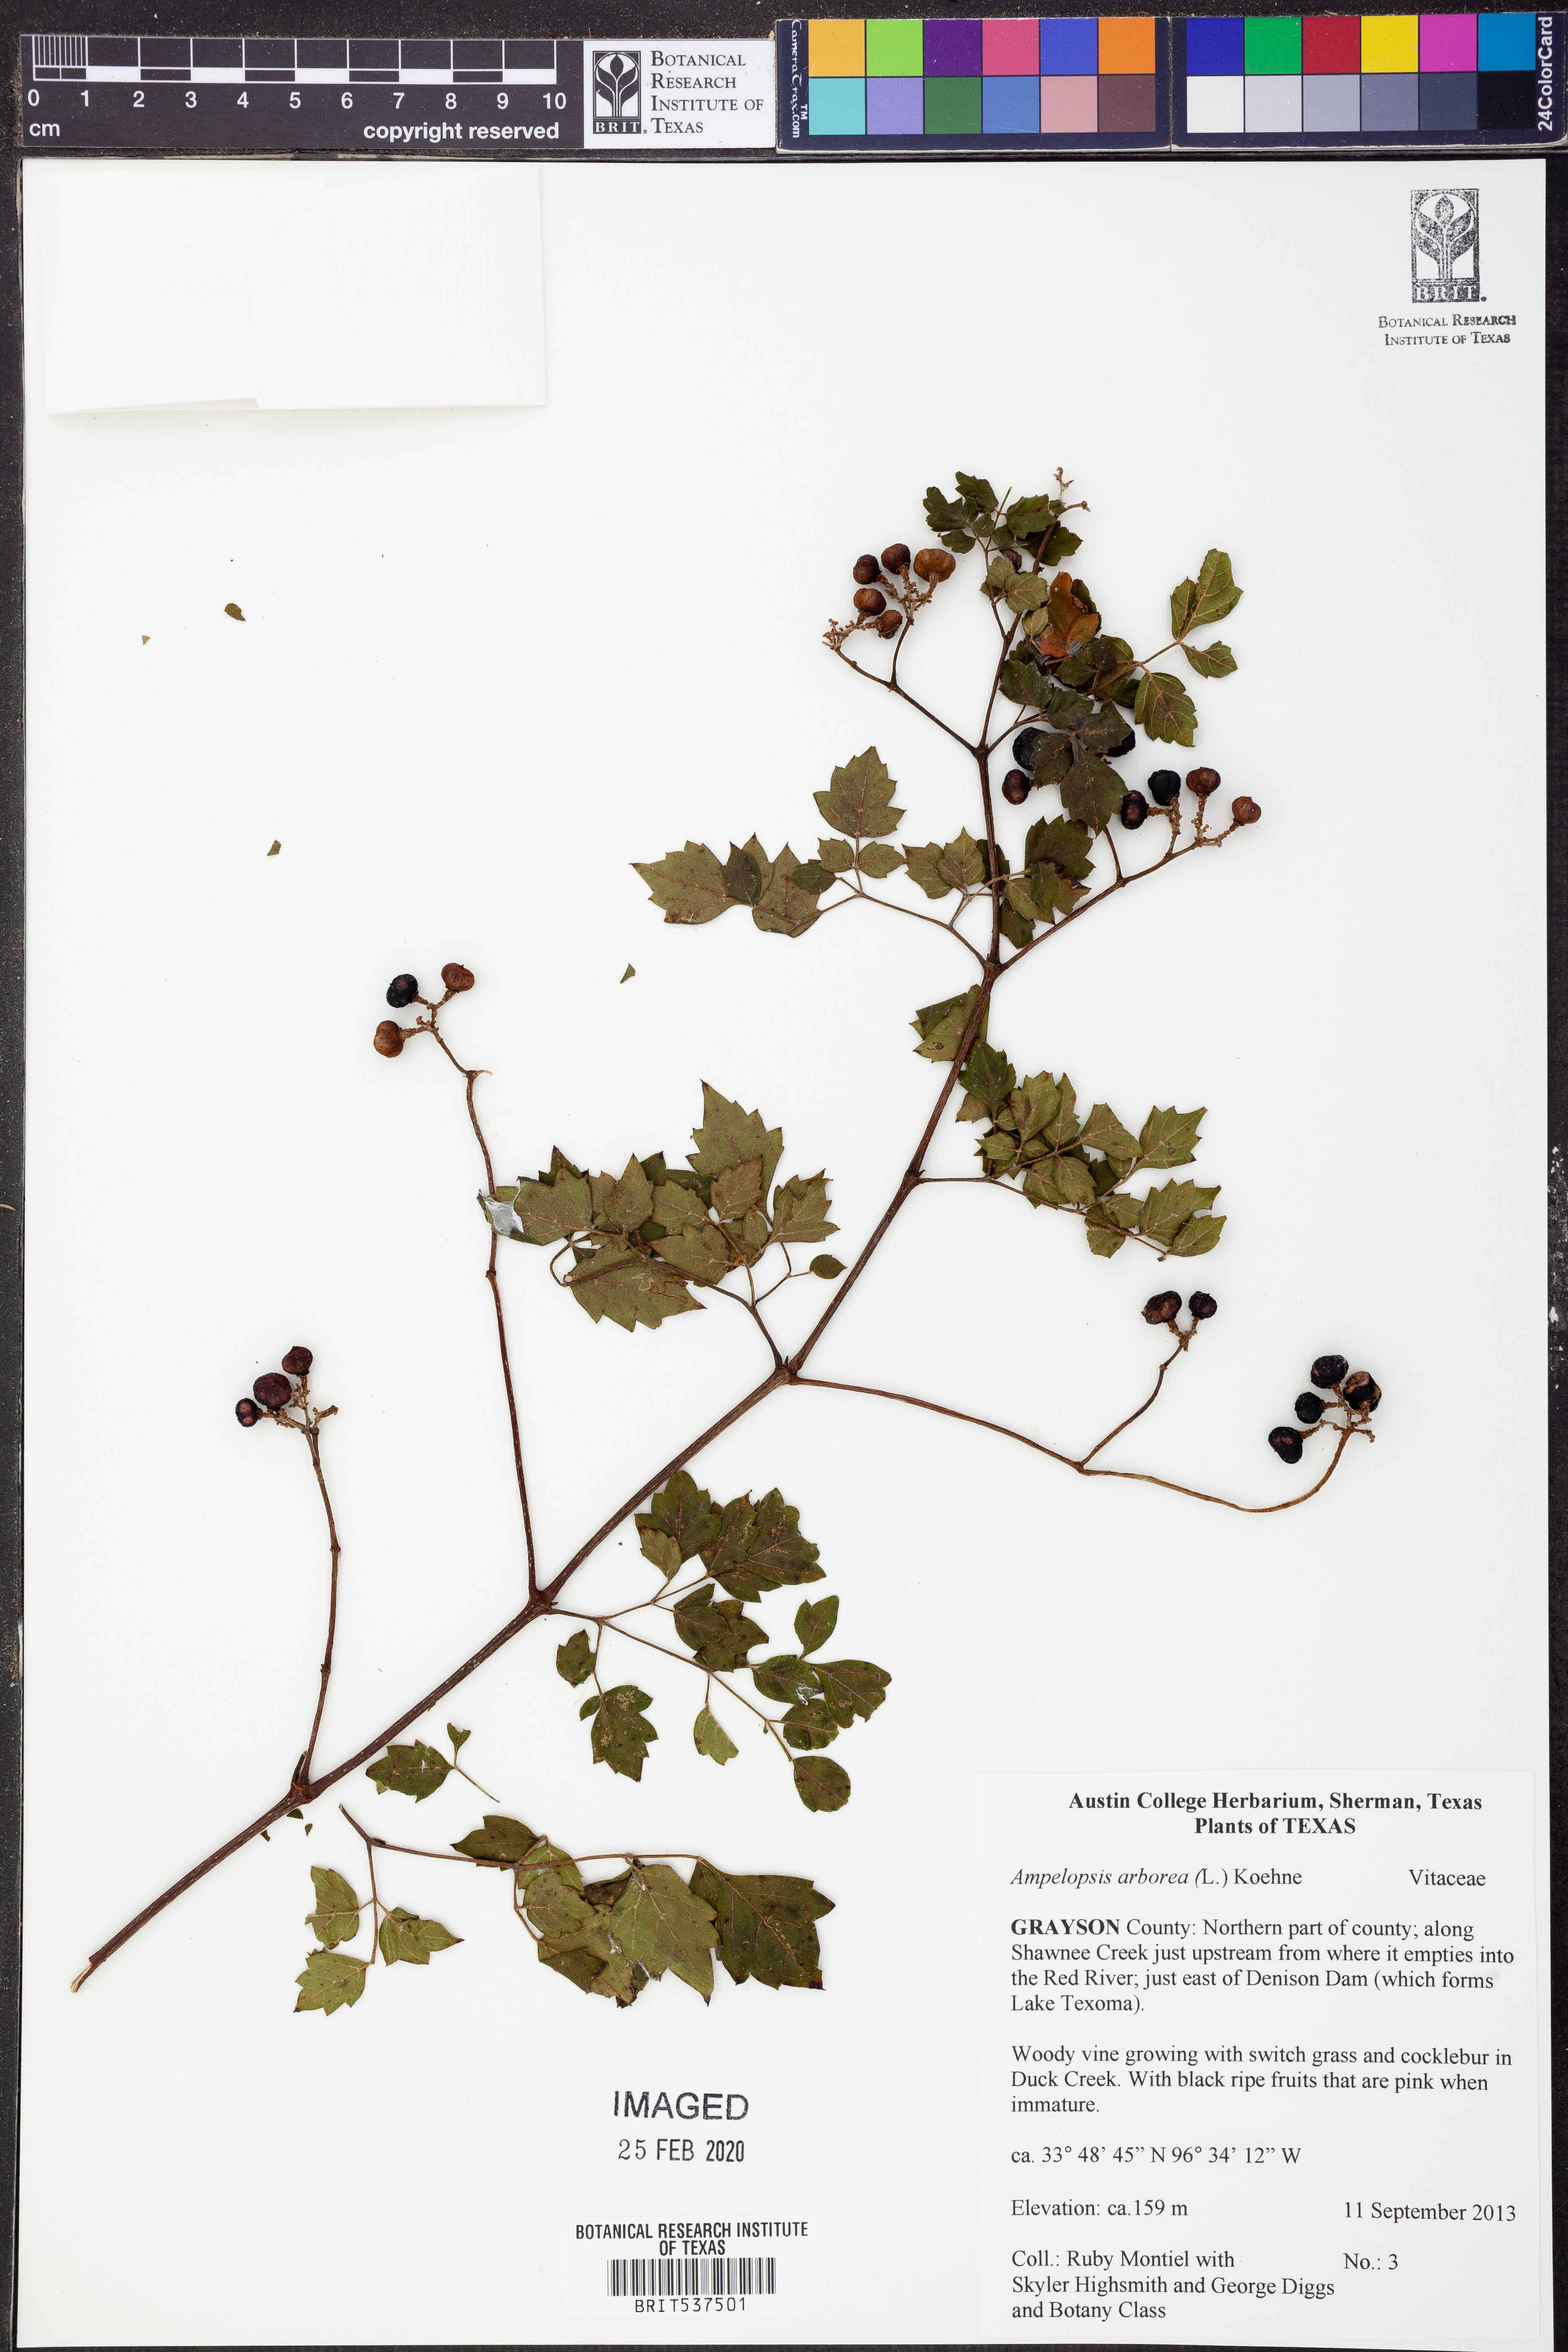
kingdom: Plantae
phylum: Tracheophyta
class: Magnoliopsida
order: Vitales
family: Vitaceae
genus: Nekemias
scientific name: Nekemias arborea
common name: Peppervine
